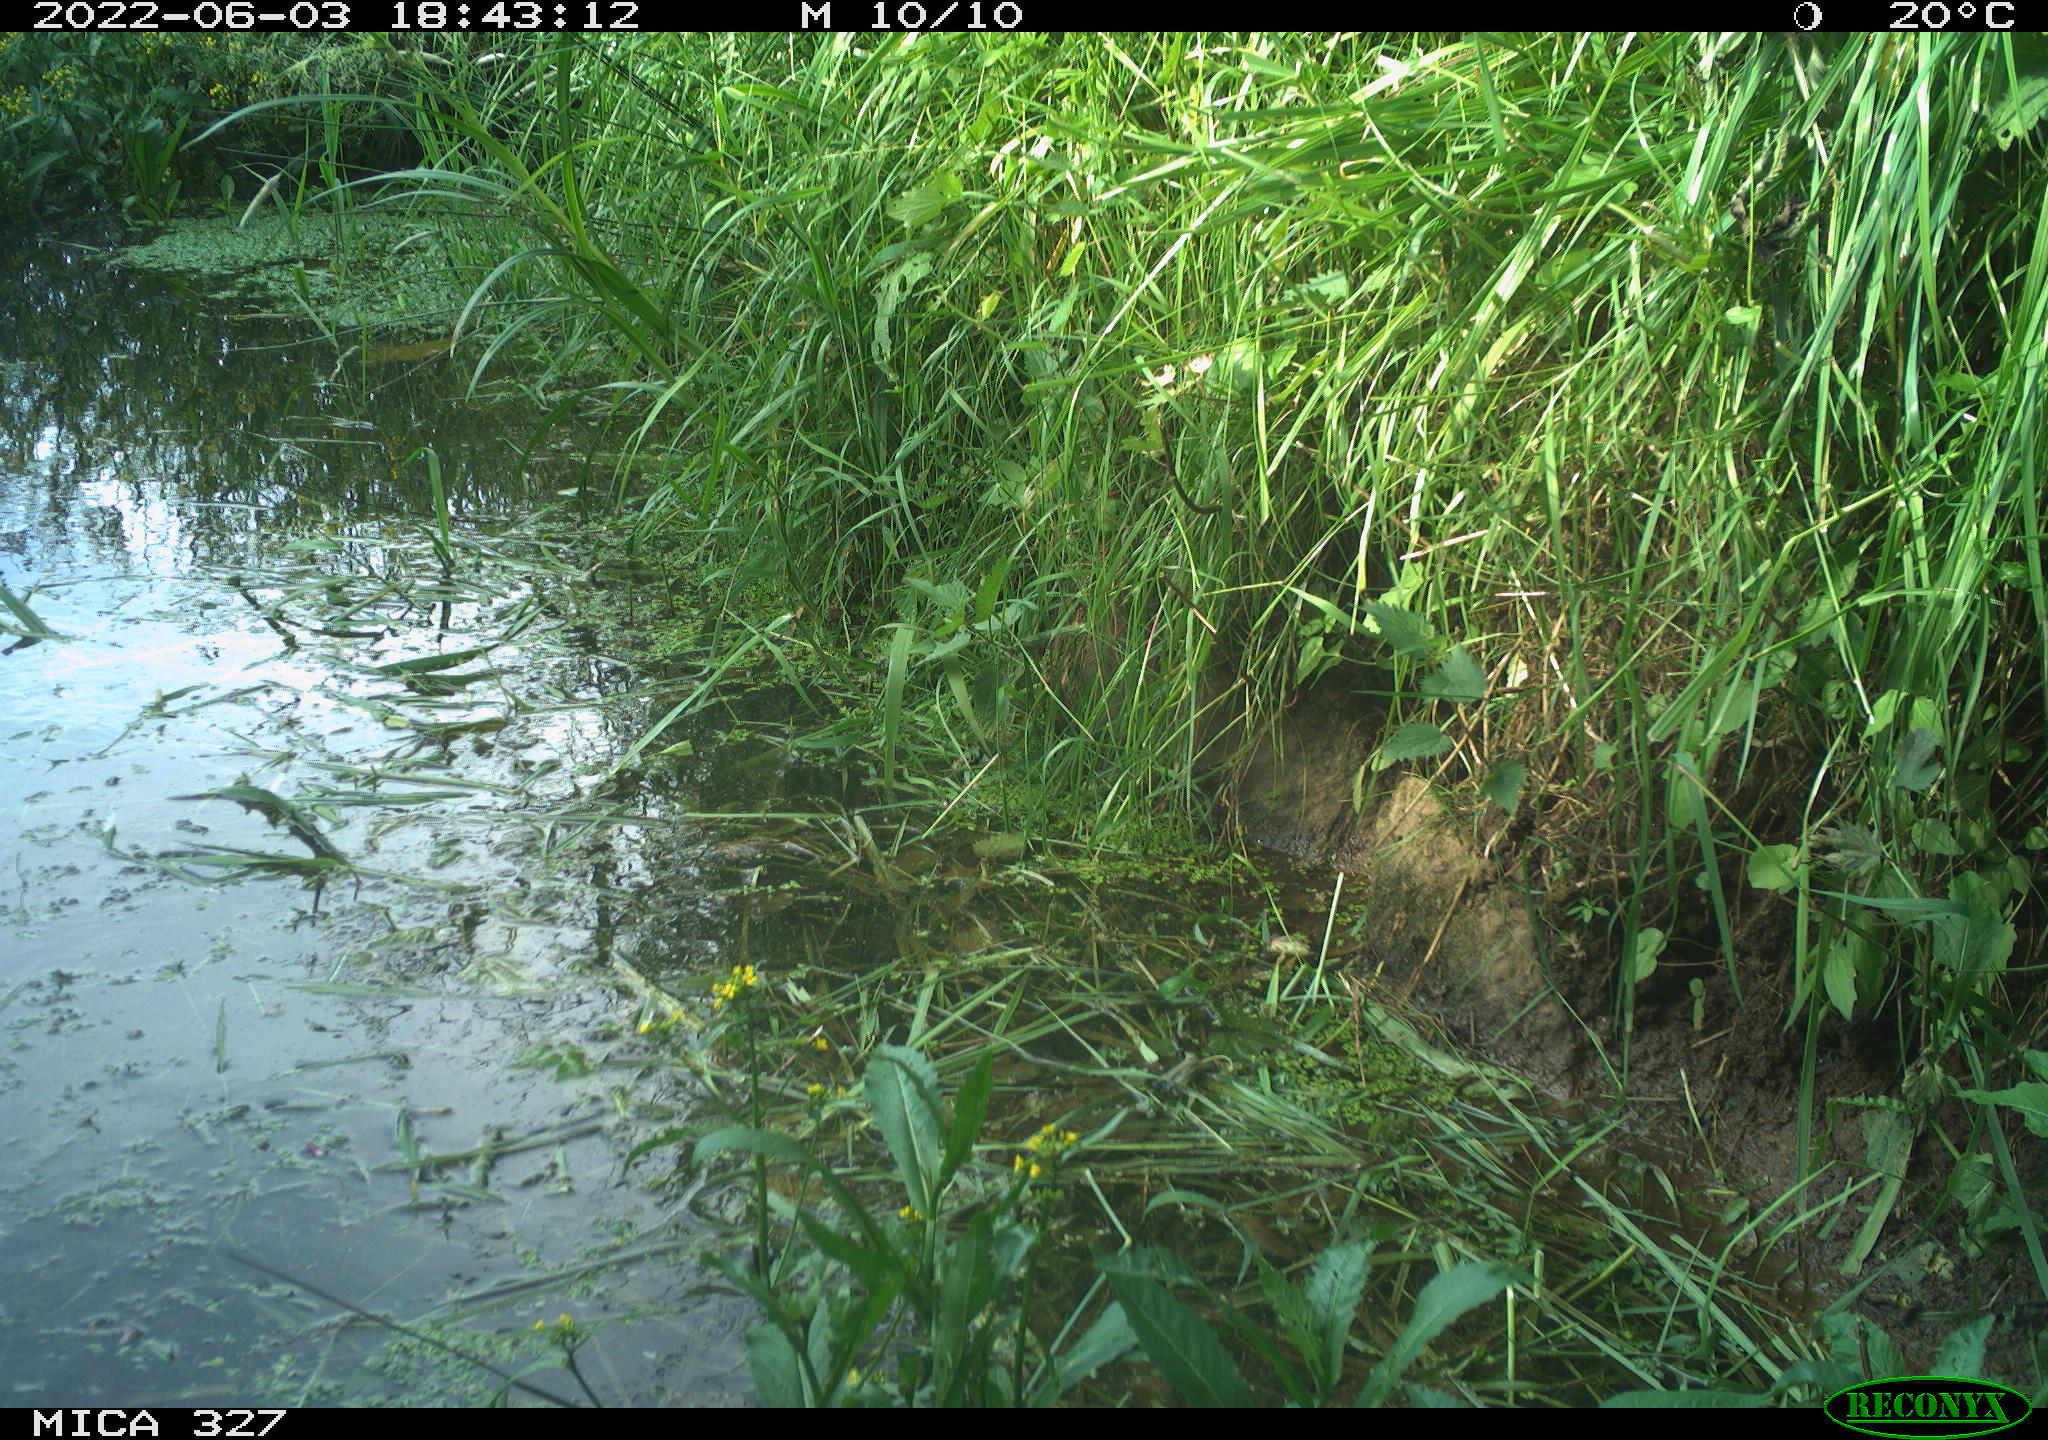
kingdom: Animalia
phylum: Chordata
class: Mammalia
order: Rodentia
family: Muridae
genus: Rattus
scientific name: Rattus norvegicus
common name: Brown rat
